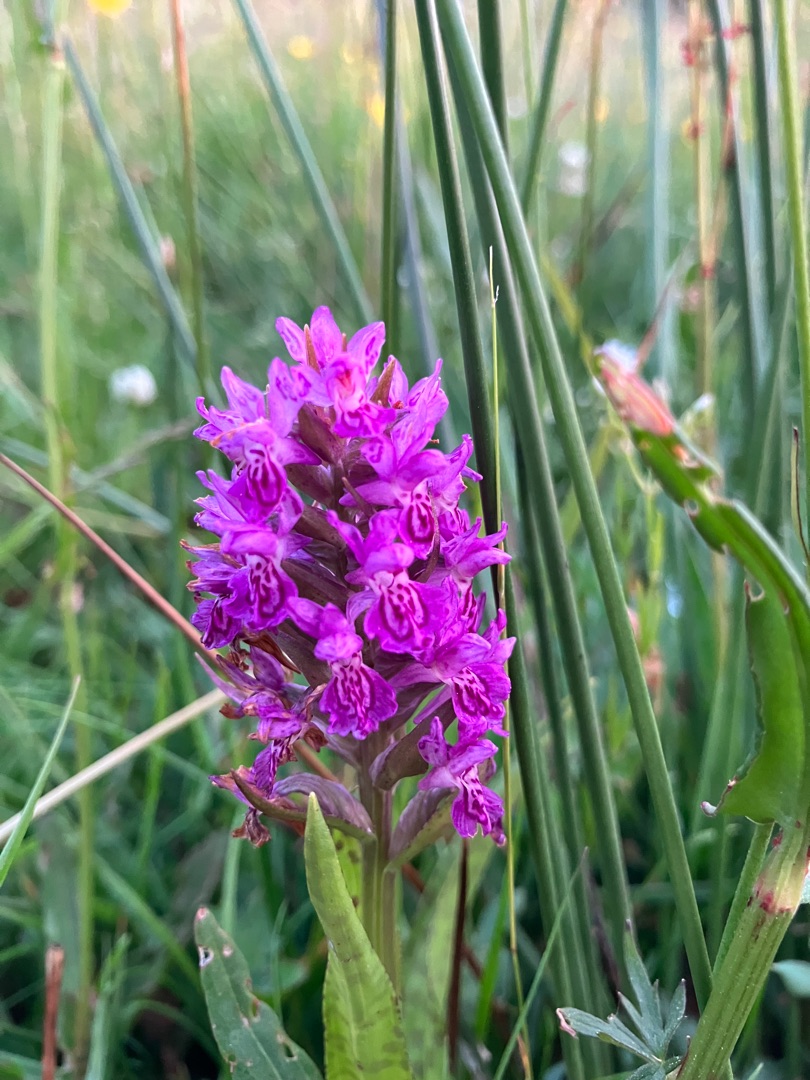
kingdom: Plantae
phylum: Tracheophyta
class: Liliopsida
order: Asparagales
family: Orchidaceae
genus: Dactylorhiza
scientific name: Dactylorhiza majalis
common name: Maj-gøgeurt
